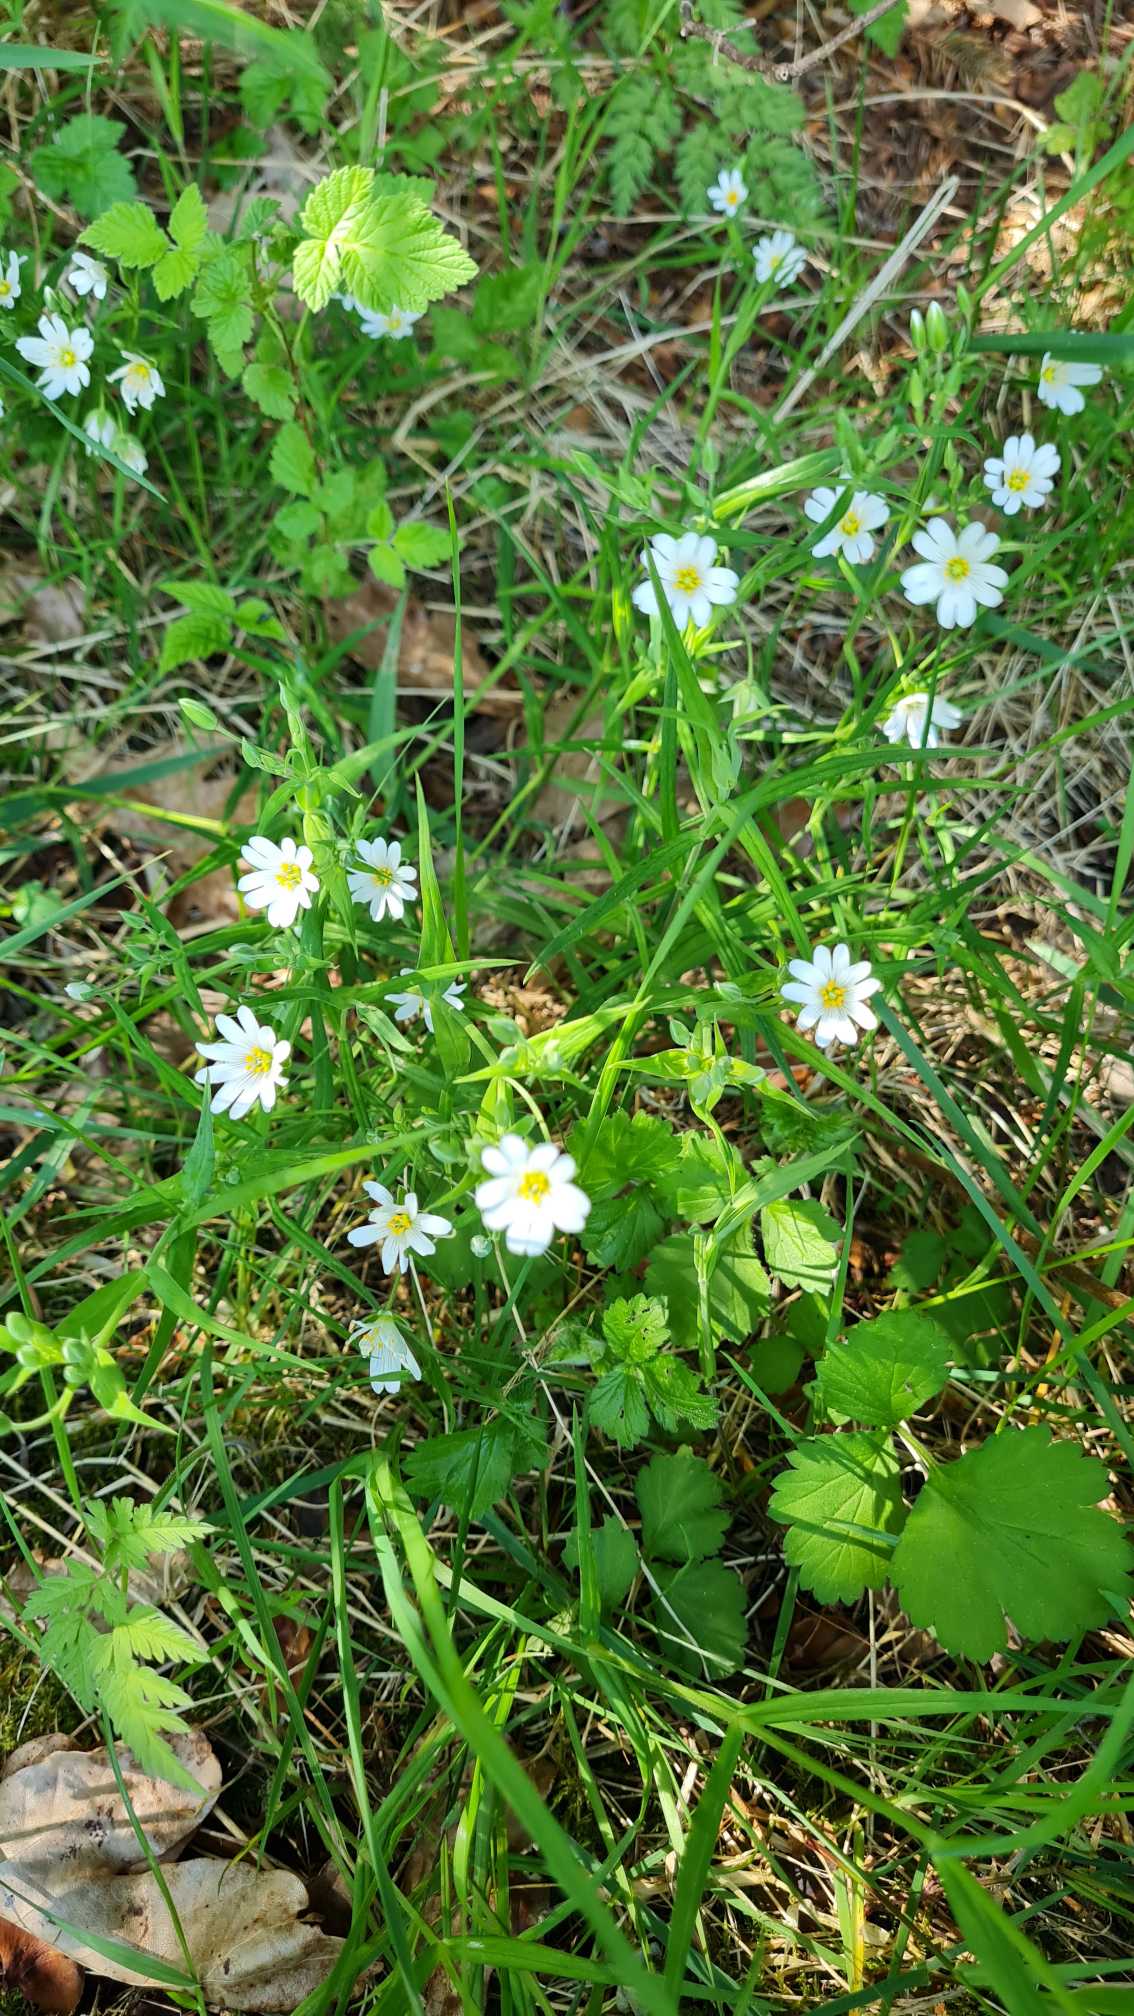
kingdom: Plantae
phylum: Tracheophyta
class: Magnoliopsida
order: Caryophyllales
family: Caryophyllaceae
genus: Rabelera
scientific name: Rabelera holostea
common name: Stor fladstjerne
